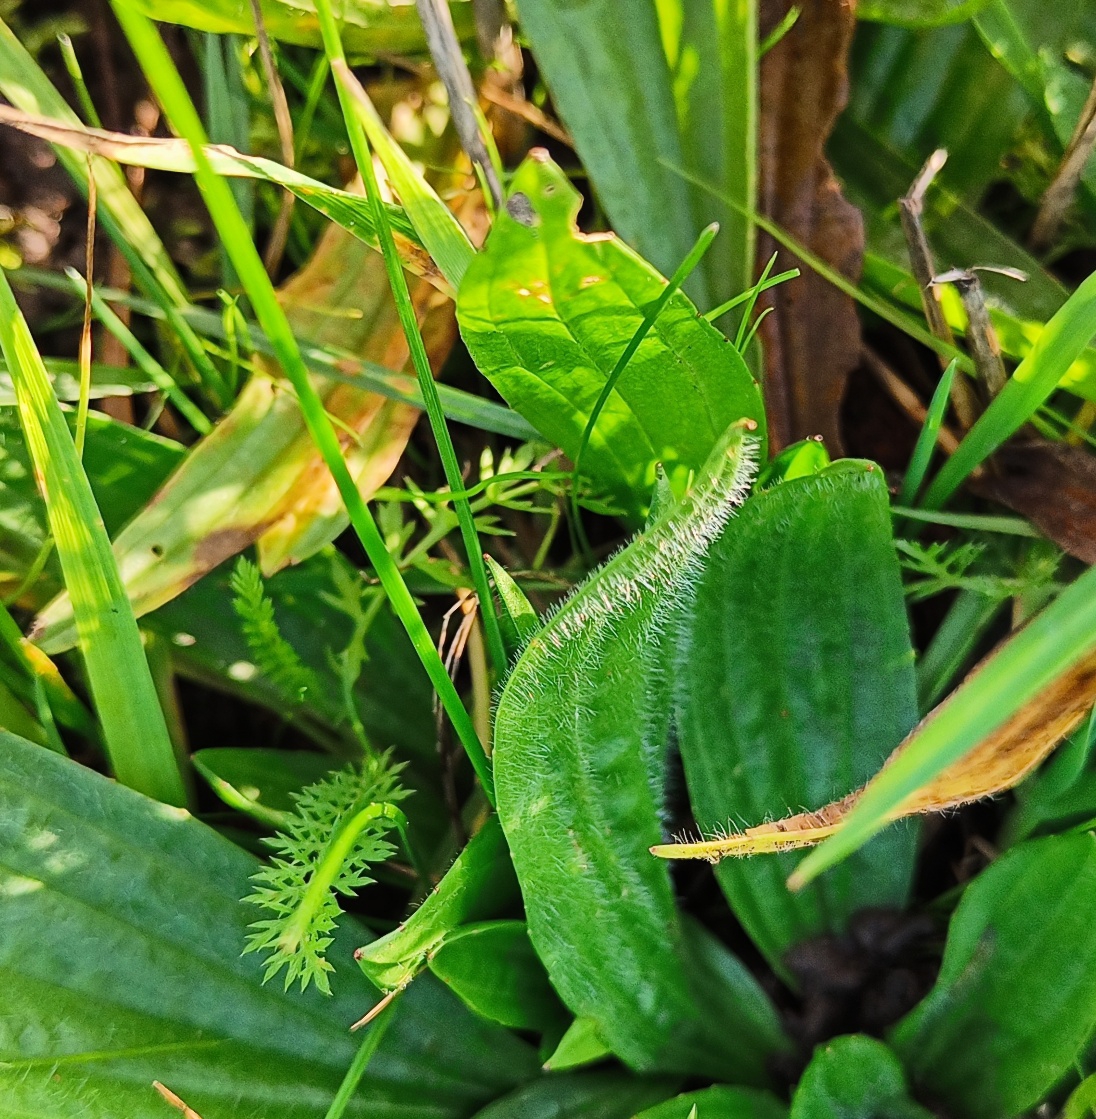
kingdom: Plantae
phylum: Tracheophyta
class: Magnoliopsida
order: Lamiales
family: Plantaginaceae
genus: Plantago
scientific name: Plantago lanceolata
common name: Lancet-vejbred
